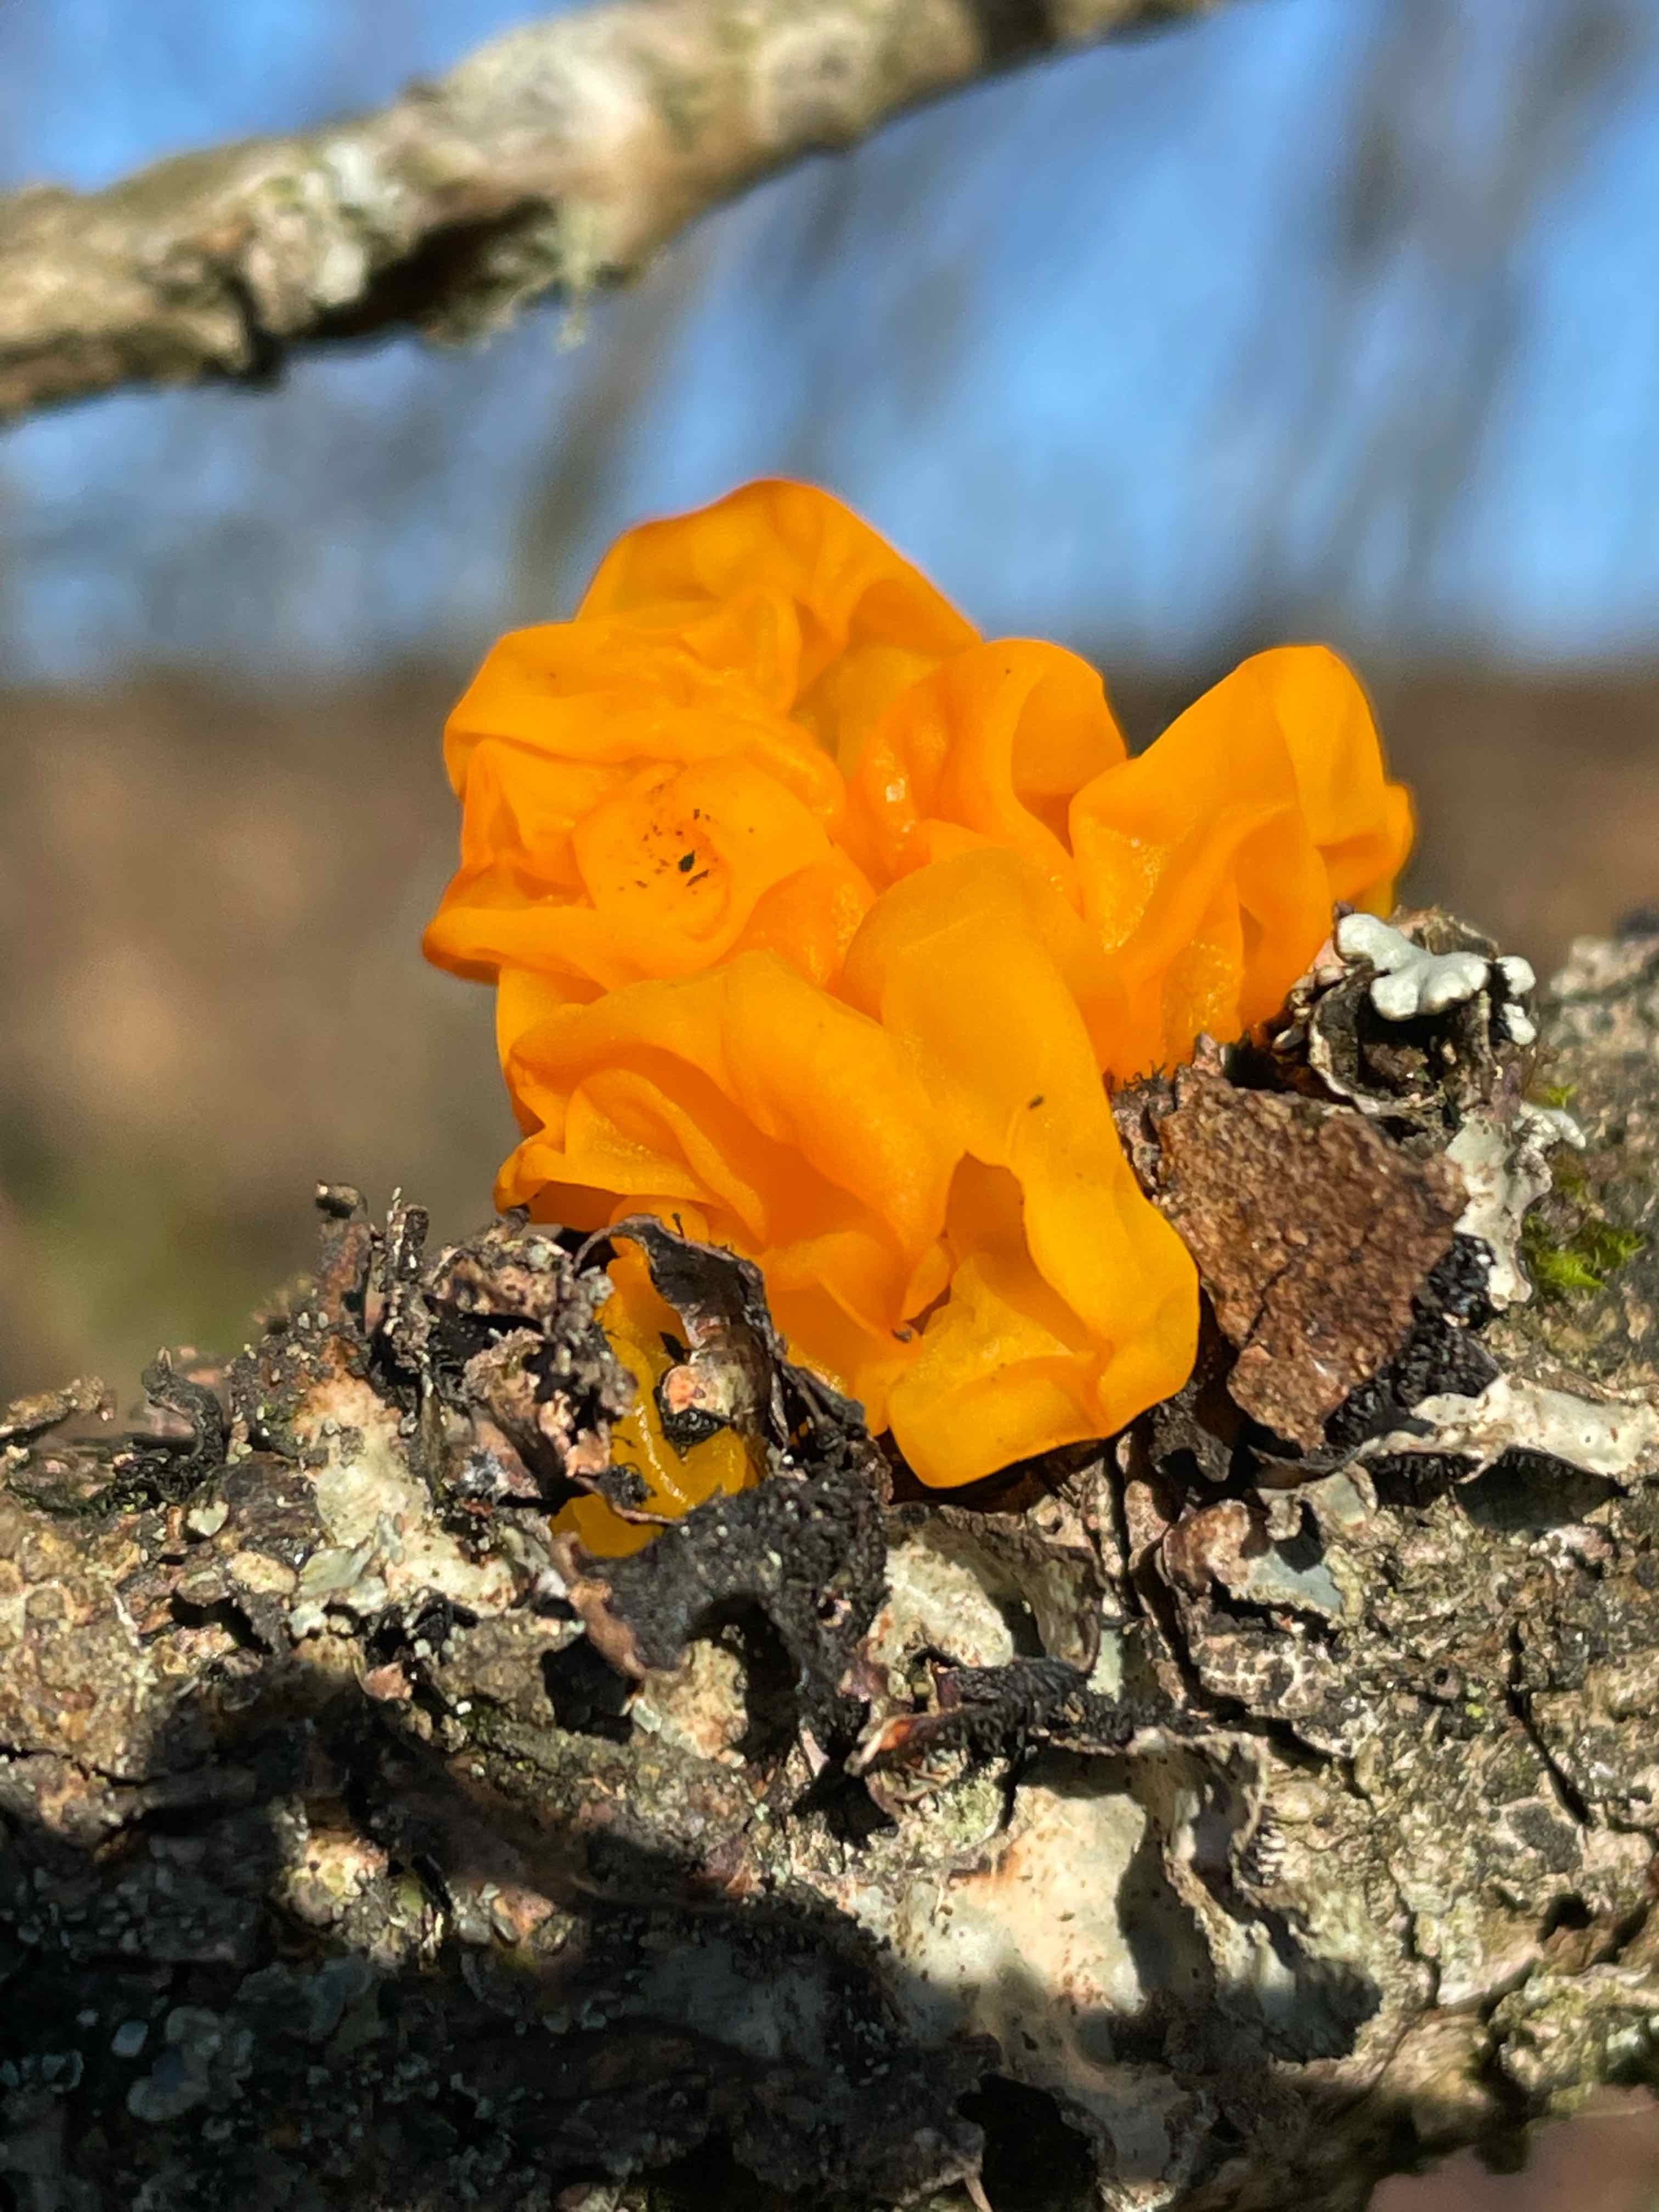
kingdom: Fungi
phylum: Basidiomycota
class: Tremellomycetes
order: Tremellales
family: Tremellaceae
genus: Tremella
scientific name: Tremella mesenterica
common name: gul bævresvamp
